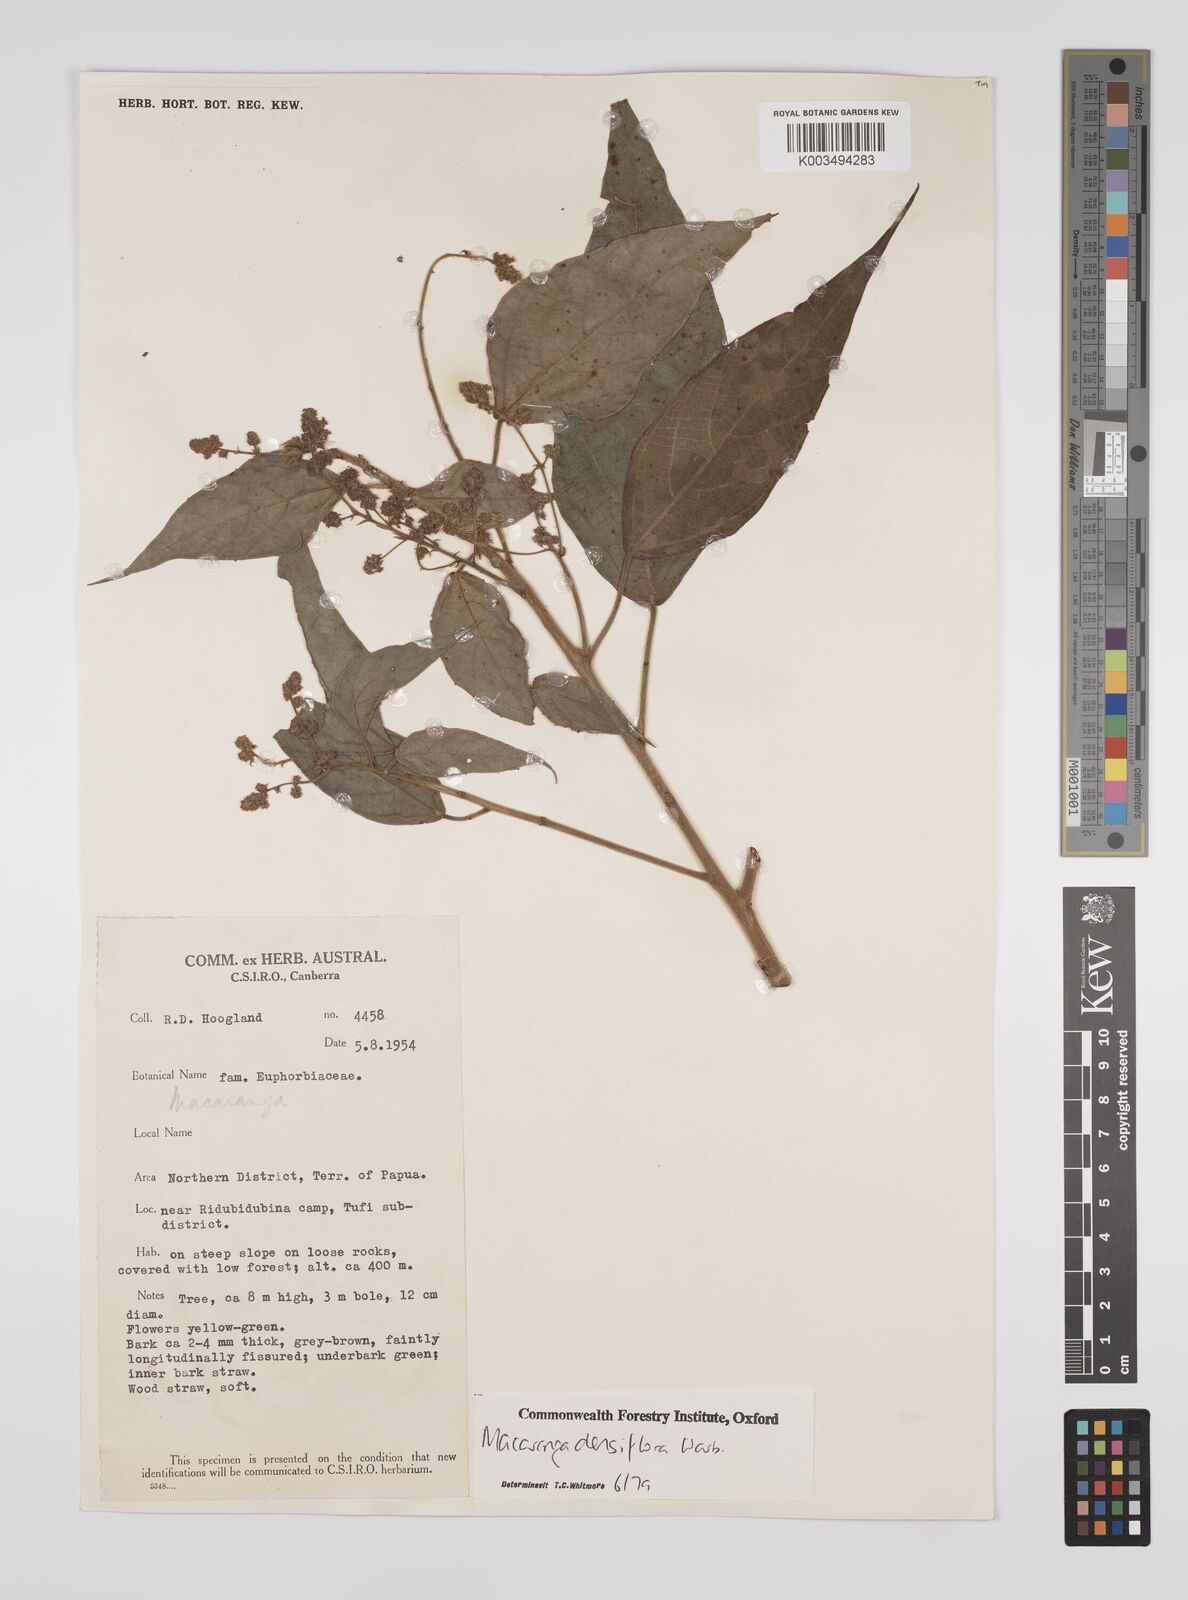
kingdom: Plantae
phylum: Tracheophyta
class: Magnoliopsida
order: Malpighiales
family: Euphorbiaceae
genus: Macaranga
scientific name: Macaranga densiflora
